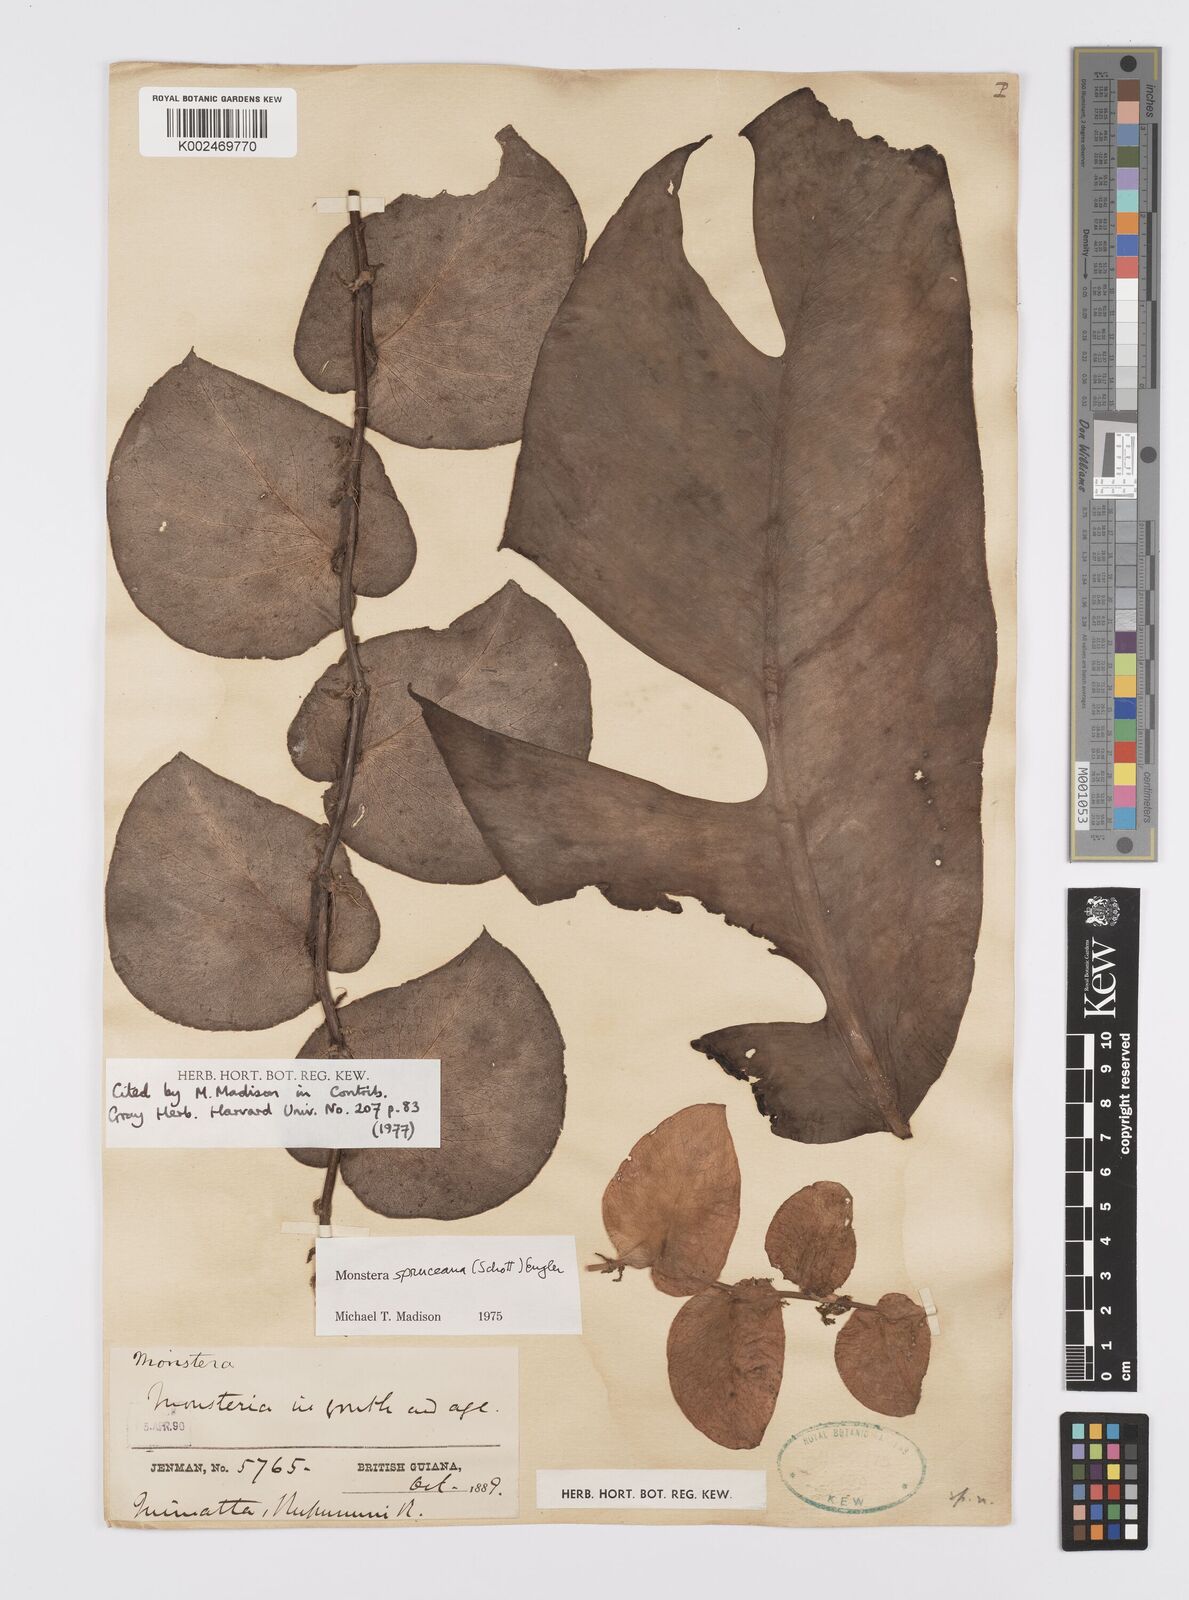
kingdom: Plantae
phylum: Tracheophyta
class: Liliopsida
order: Alismatales
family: Araceae
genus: Monstera
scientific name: Monstera spruceana
